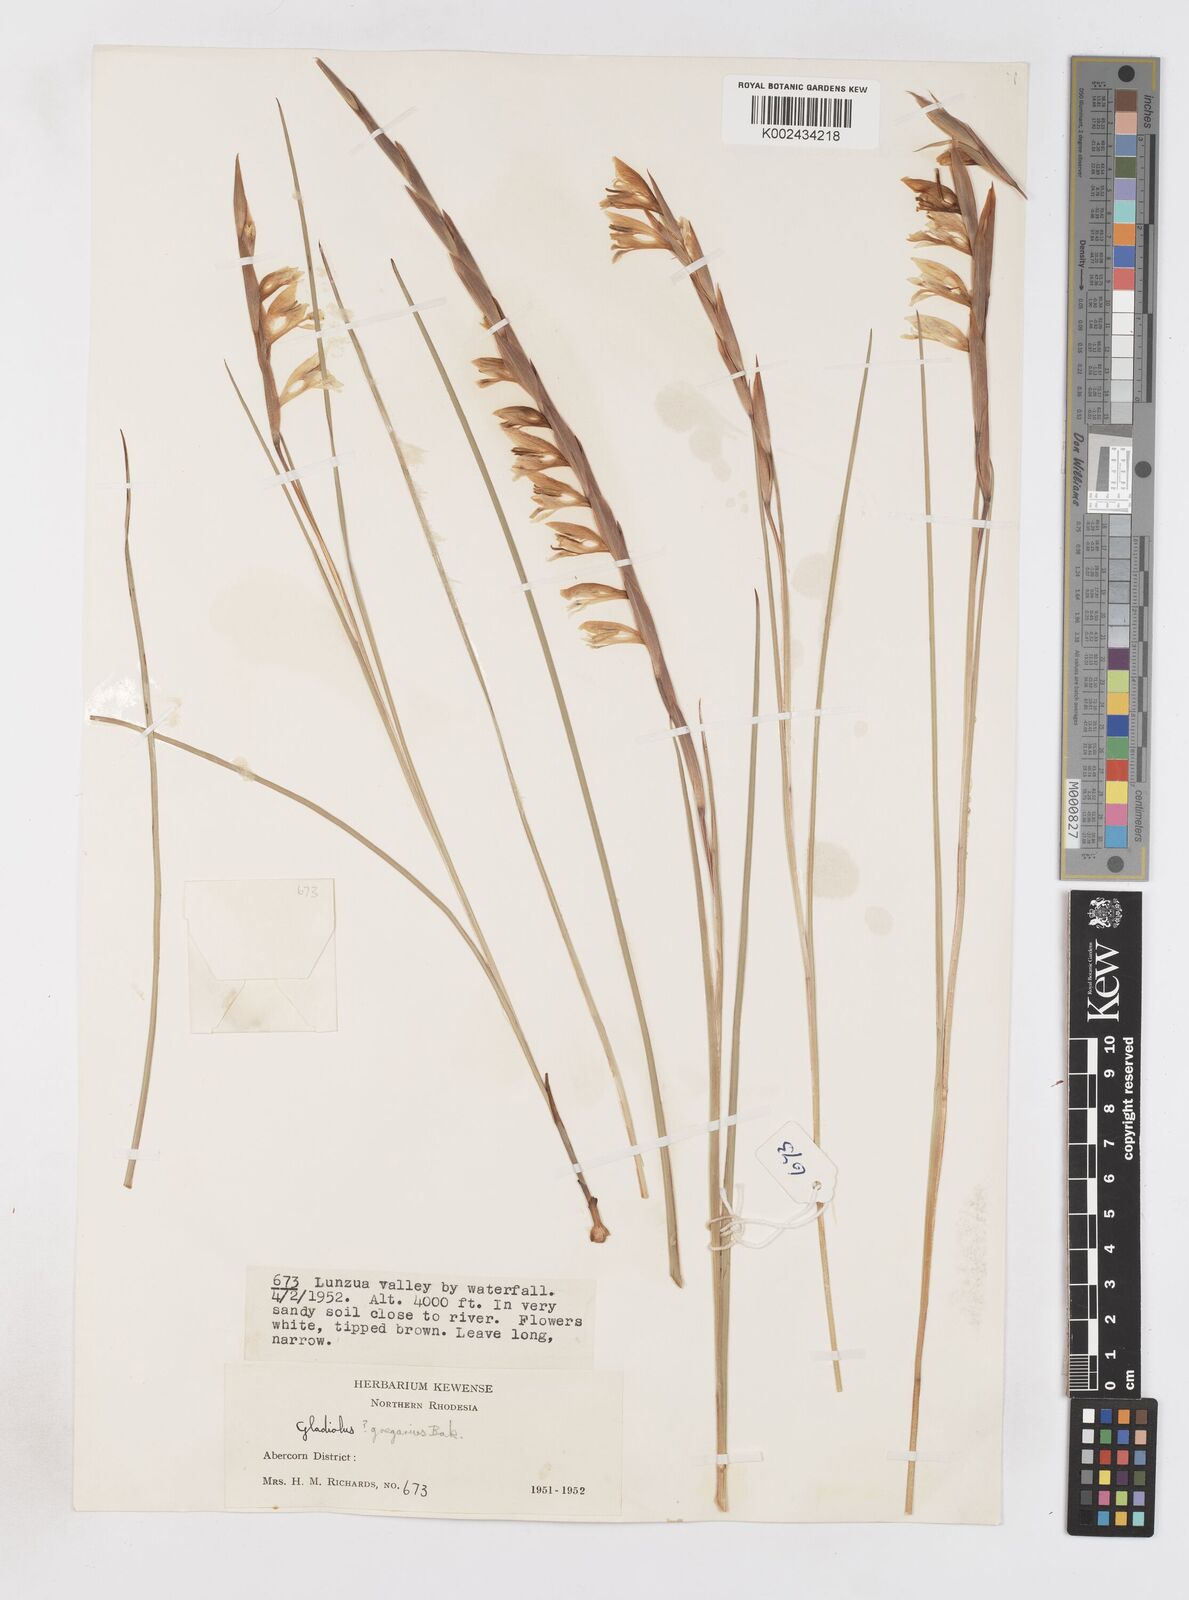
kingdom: Plantae
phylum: Tracheophyta
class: Liliopsida
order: Asparagales
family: Iridaceae
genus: Gladiolus
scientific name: Gladiolus gregarius
